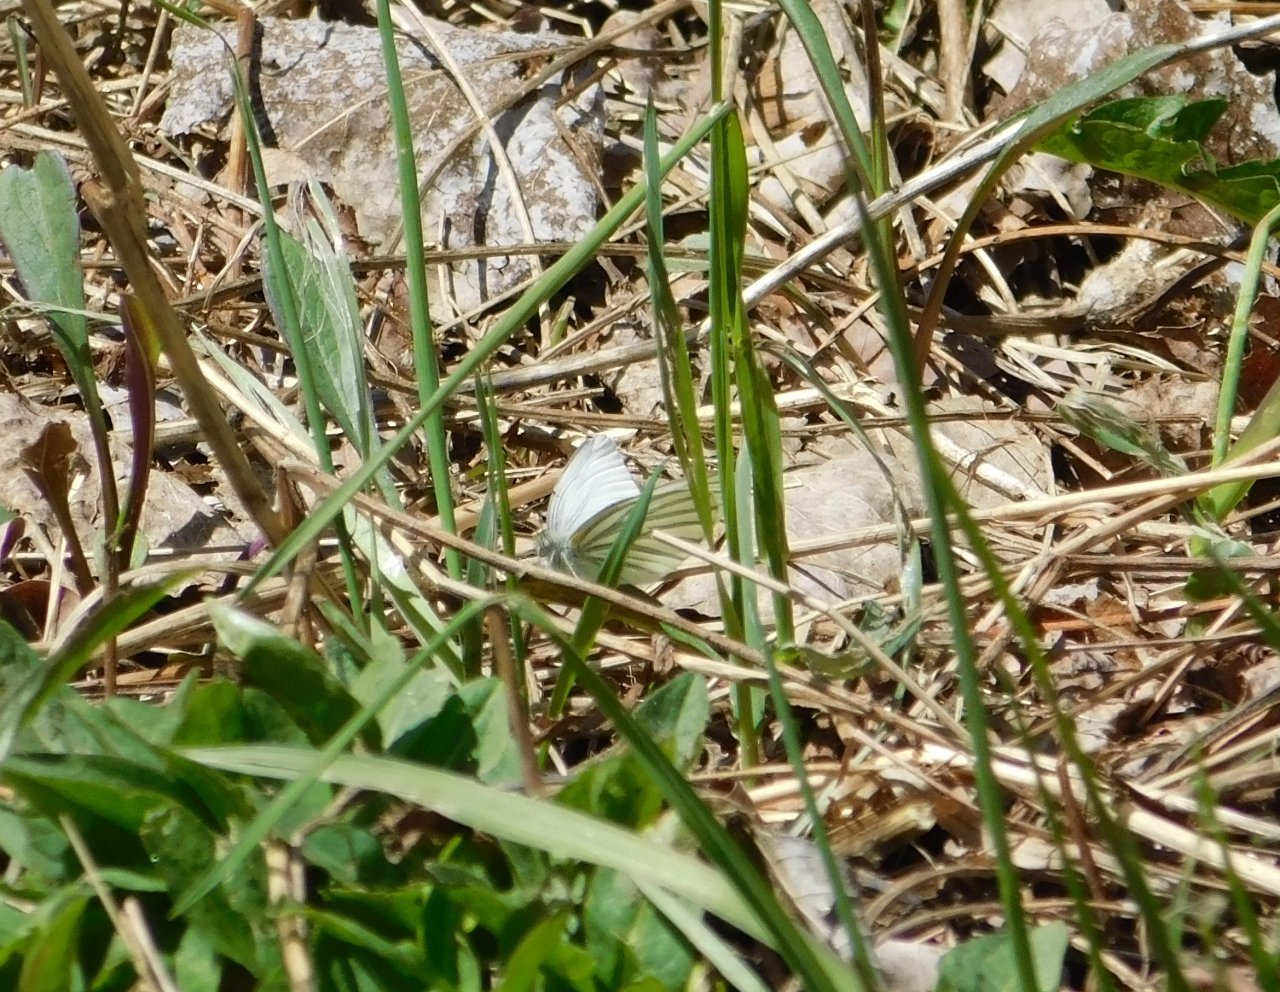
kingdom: Animalia
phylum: Arthropoda
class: Insecta
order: Lepidoptera
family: Pieridae
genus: Pieris
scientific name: Pieris oleracea
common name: Mustard White
